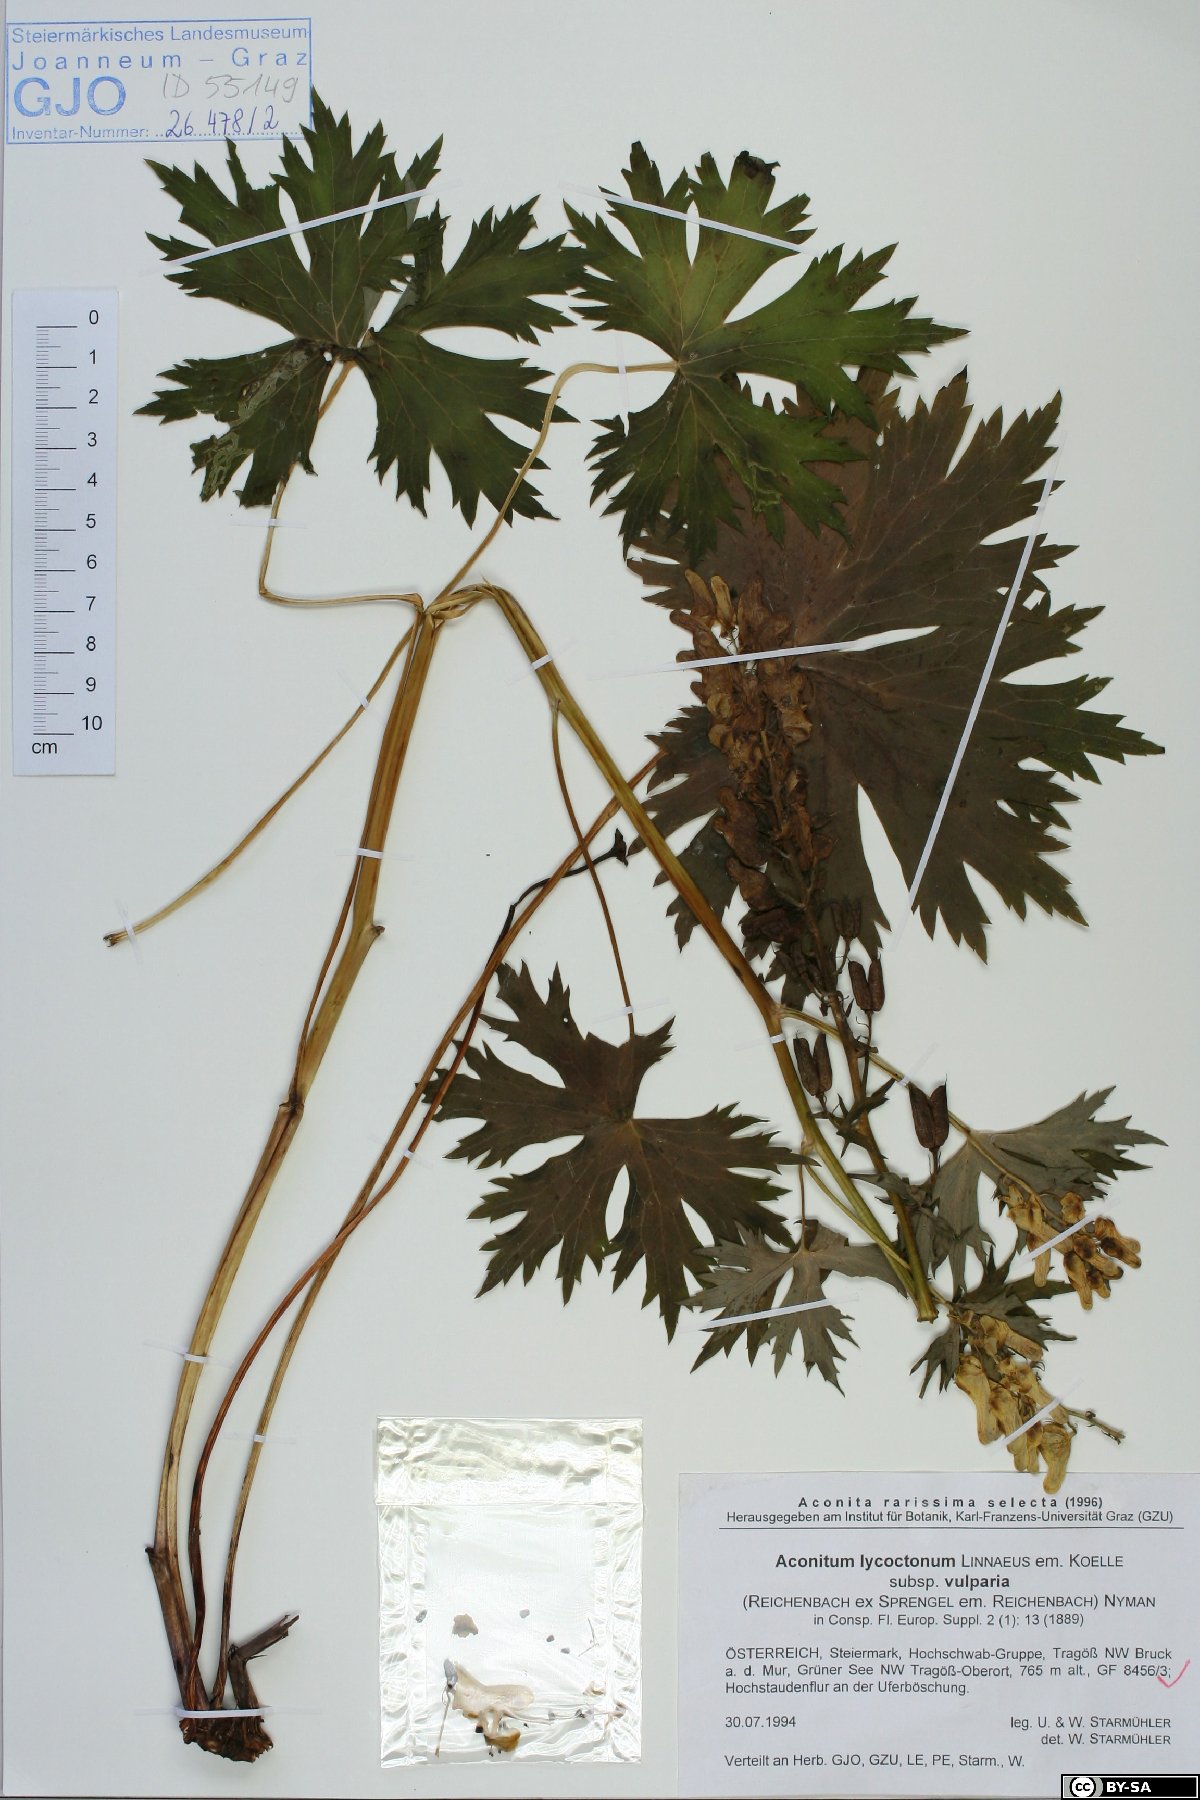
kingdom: Plantae
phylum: Tracheophyta
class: Magnoliopsida
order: Ranunculales
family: Ranunculaceae
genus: Aconitum
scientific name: Aconitum lycoctonum
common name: Wolf's-bane
